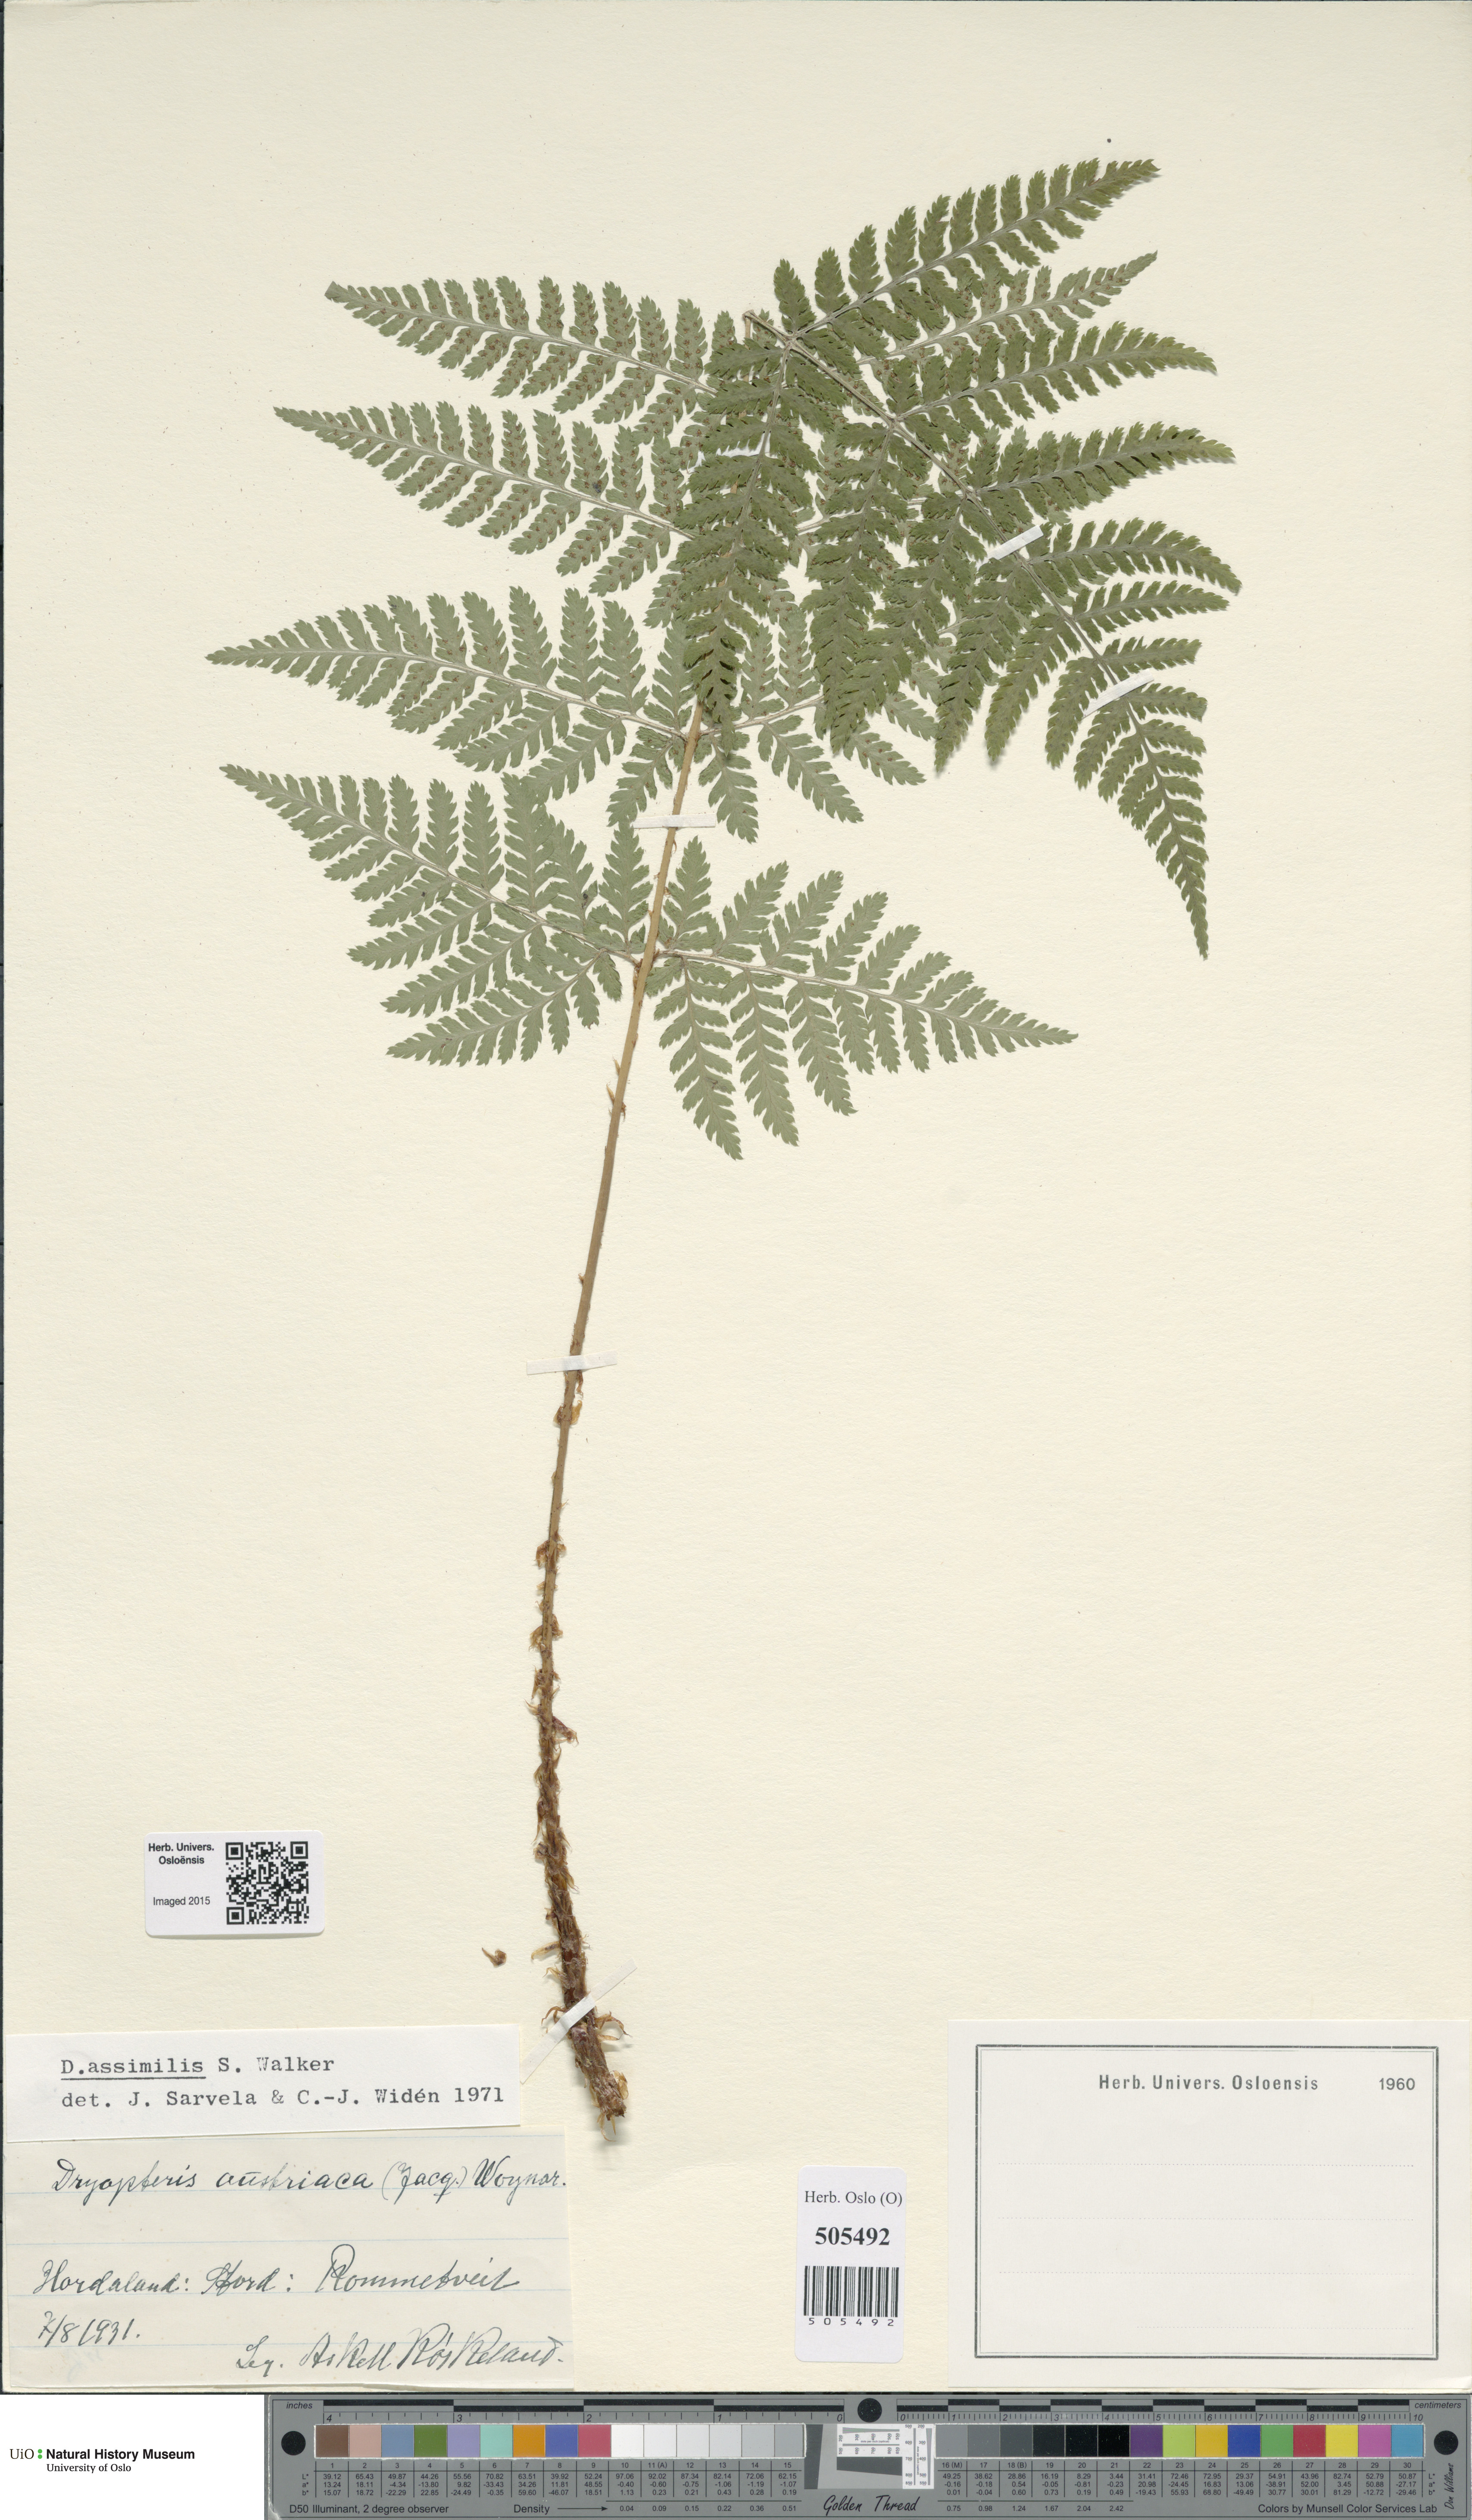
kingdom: Plantae
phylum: Tracheophyta
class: Polypodiopsida
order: Polypodiales
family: Dryopteridaceae
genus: Dryopteris
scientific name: Dryopteris expansa
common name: Northern buckler fern
